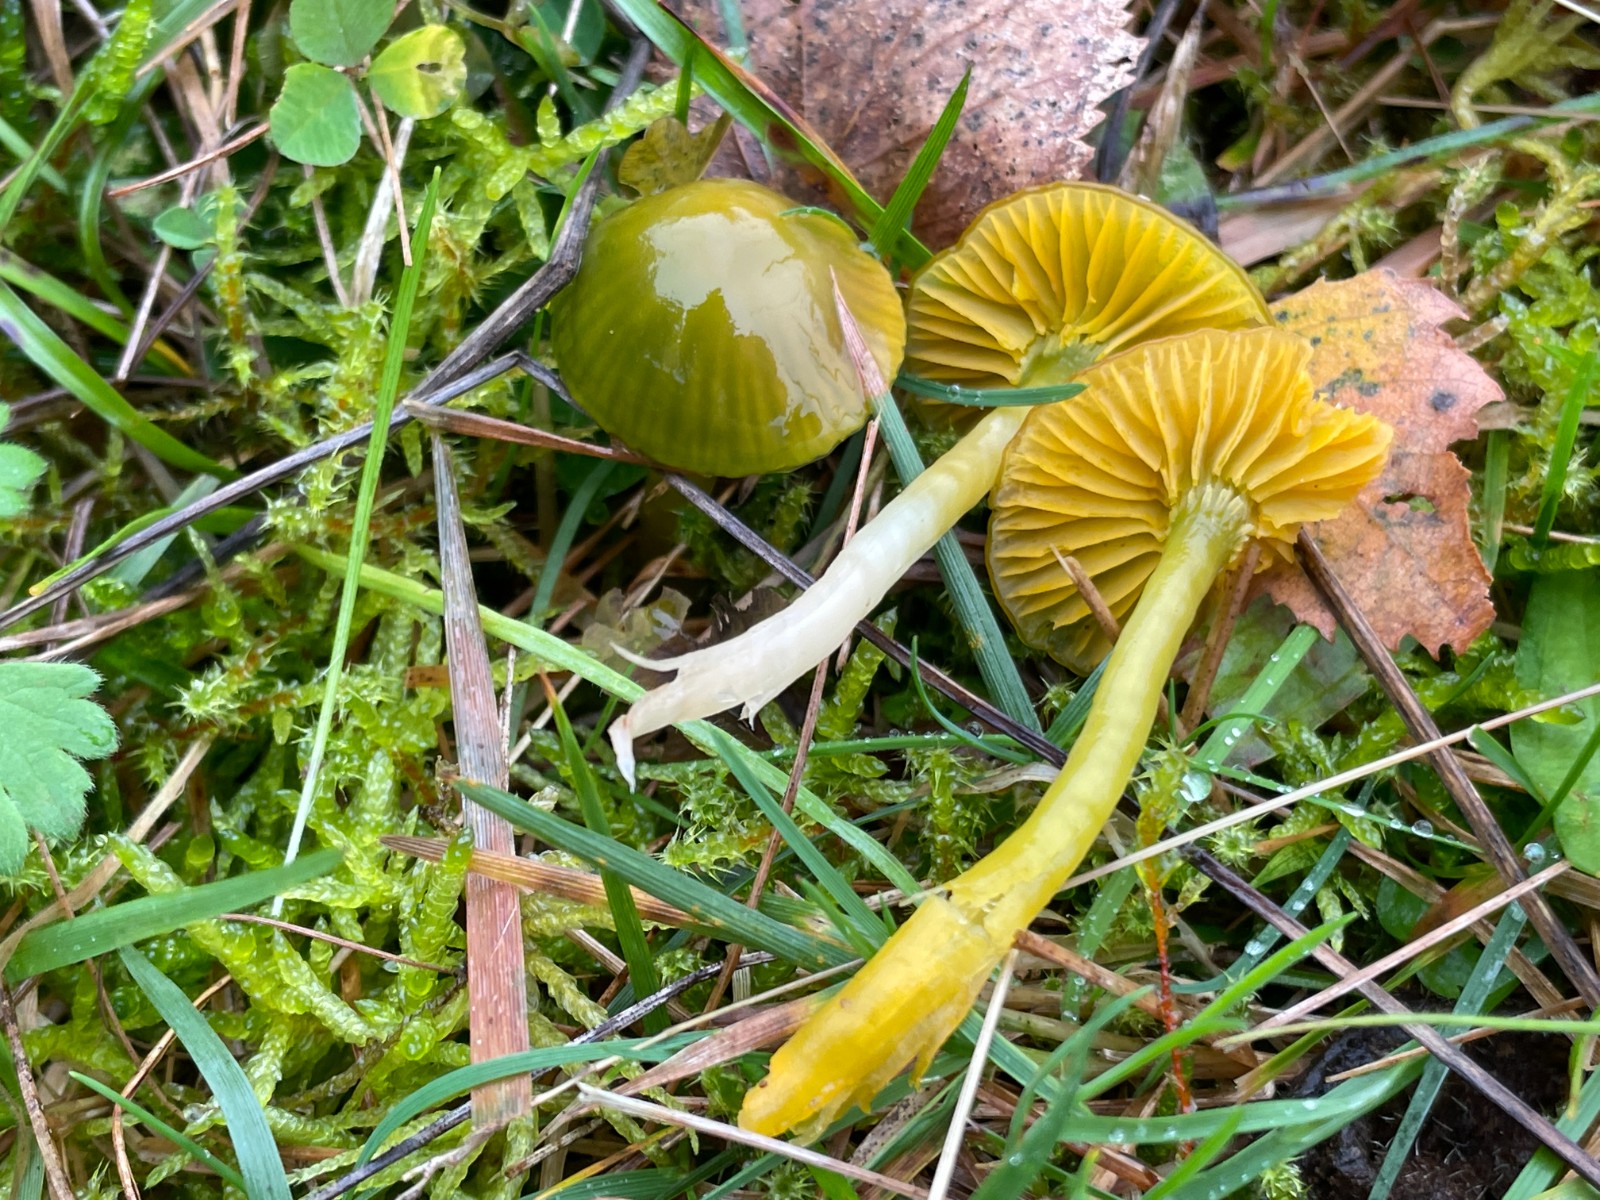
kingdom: Fungi
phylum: Basidiomycota
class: Agaricomycetes
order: Agaricales
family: Hygrophoraceae
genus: Gliophorus
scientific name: Gliophorus psittacinus
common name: papegøje-vokshat
